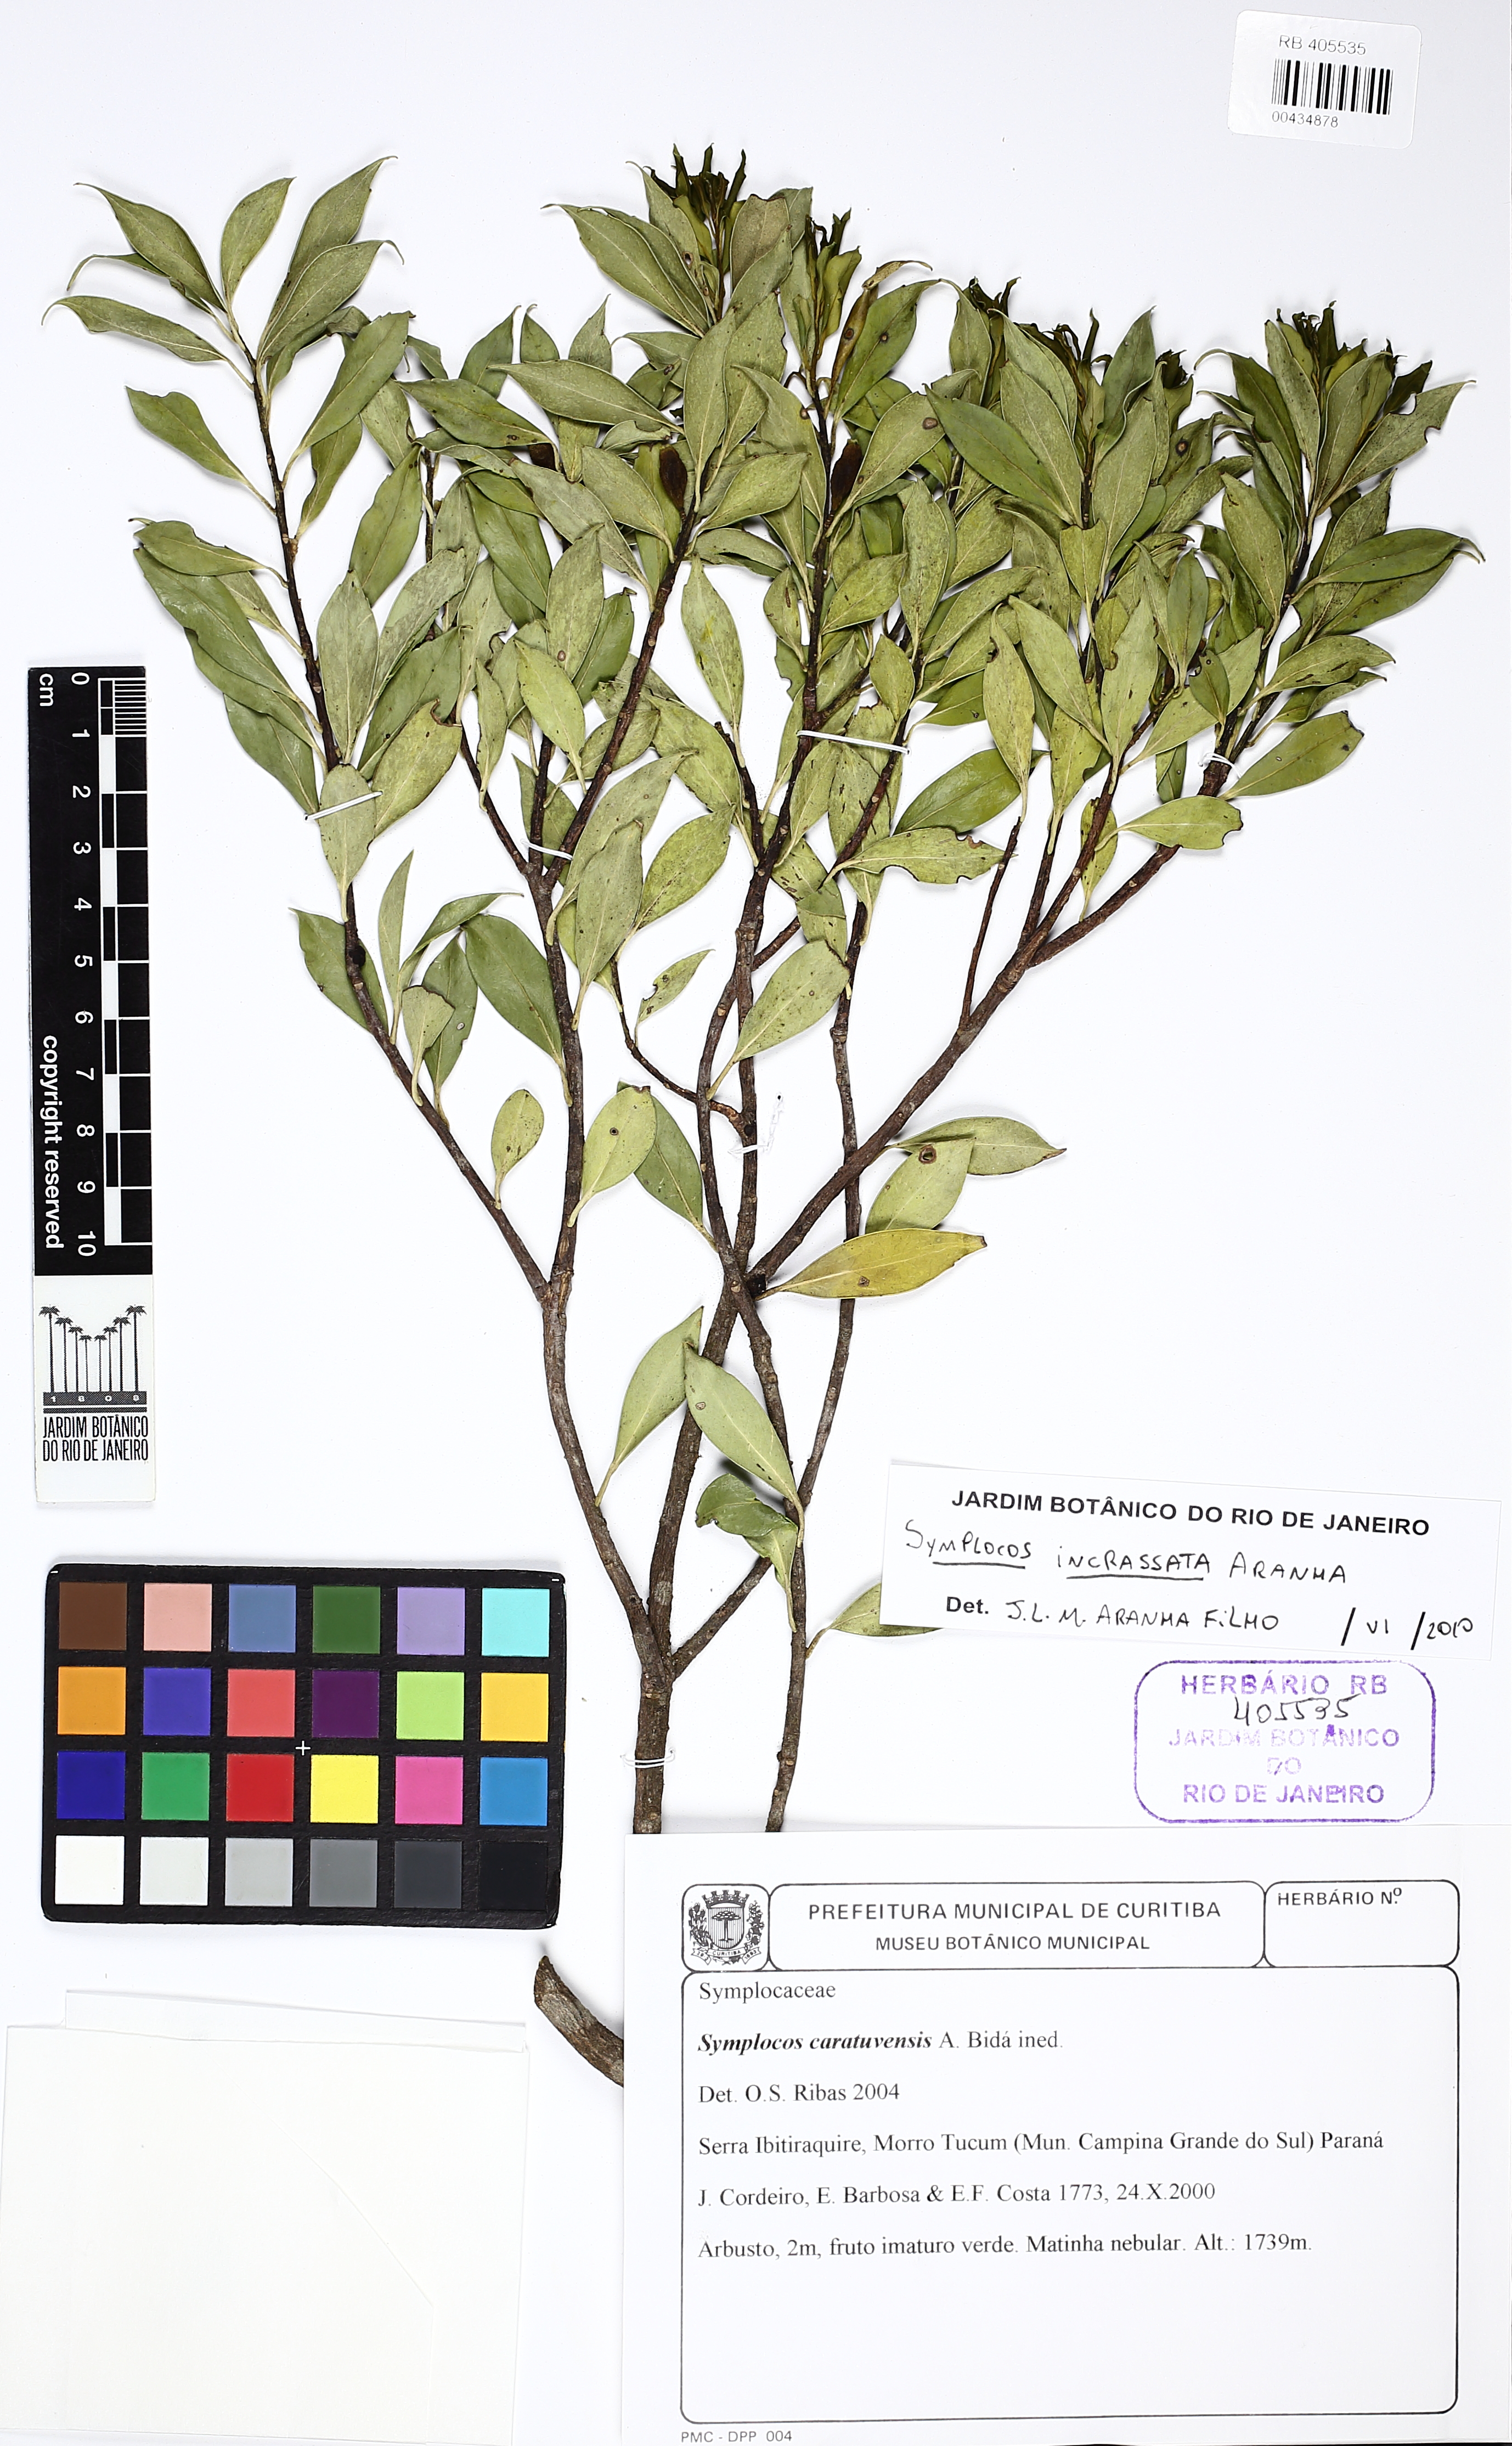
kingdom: Plantae
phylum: Tracheophyta
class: Magnoliopsida
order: Ericales
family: Symplocaceae
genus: Symplocos
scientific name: Symplocos incrassata
